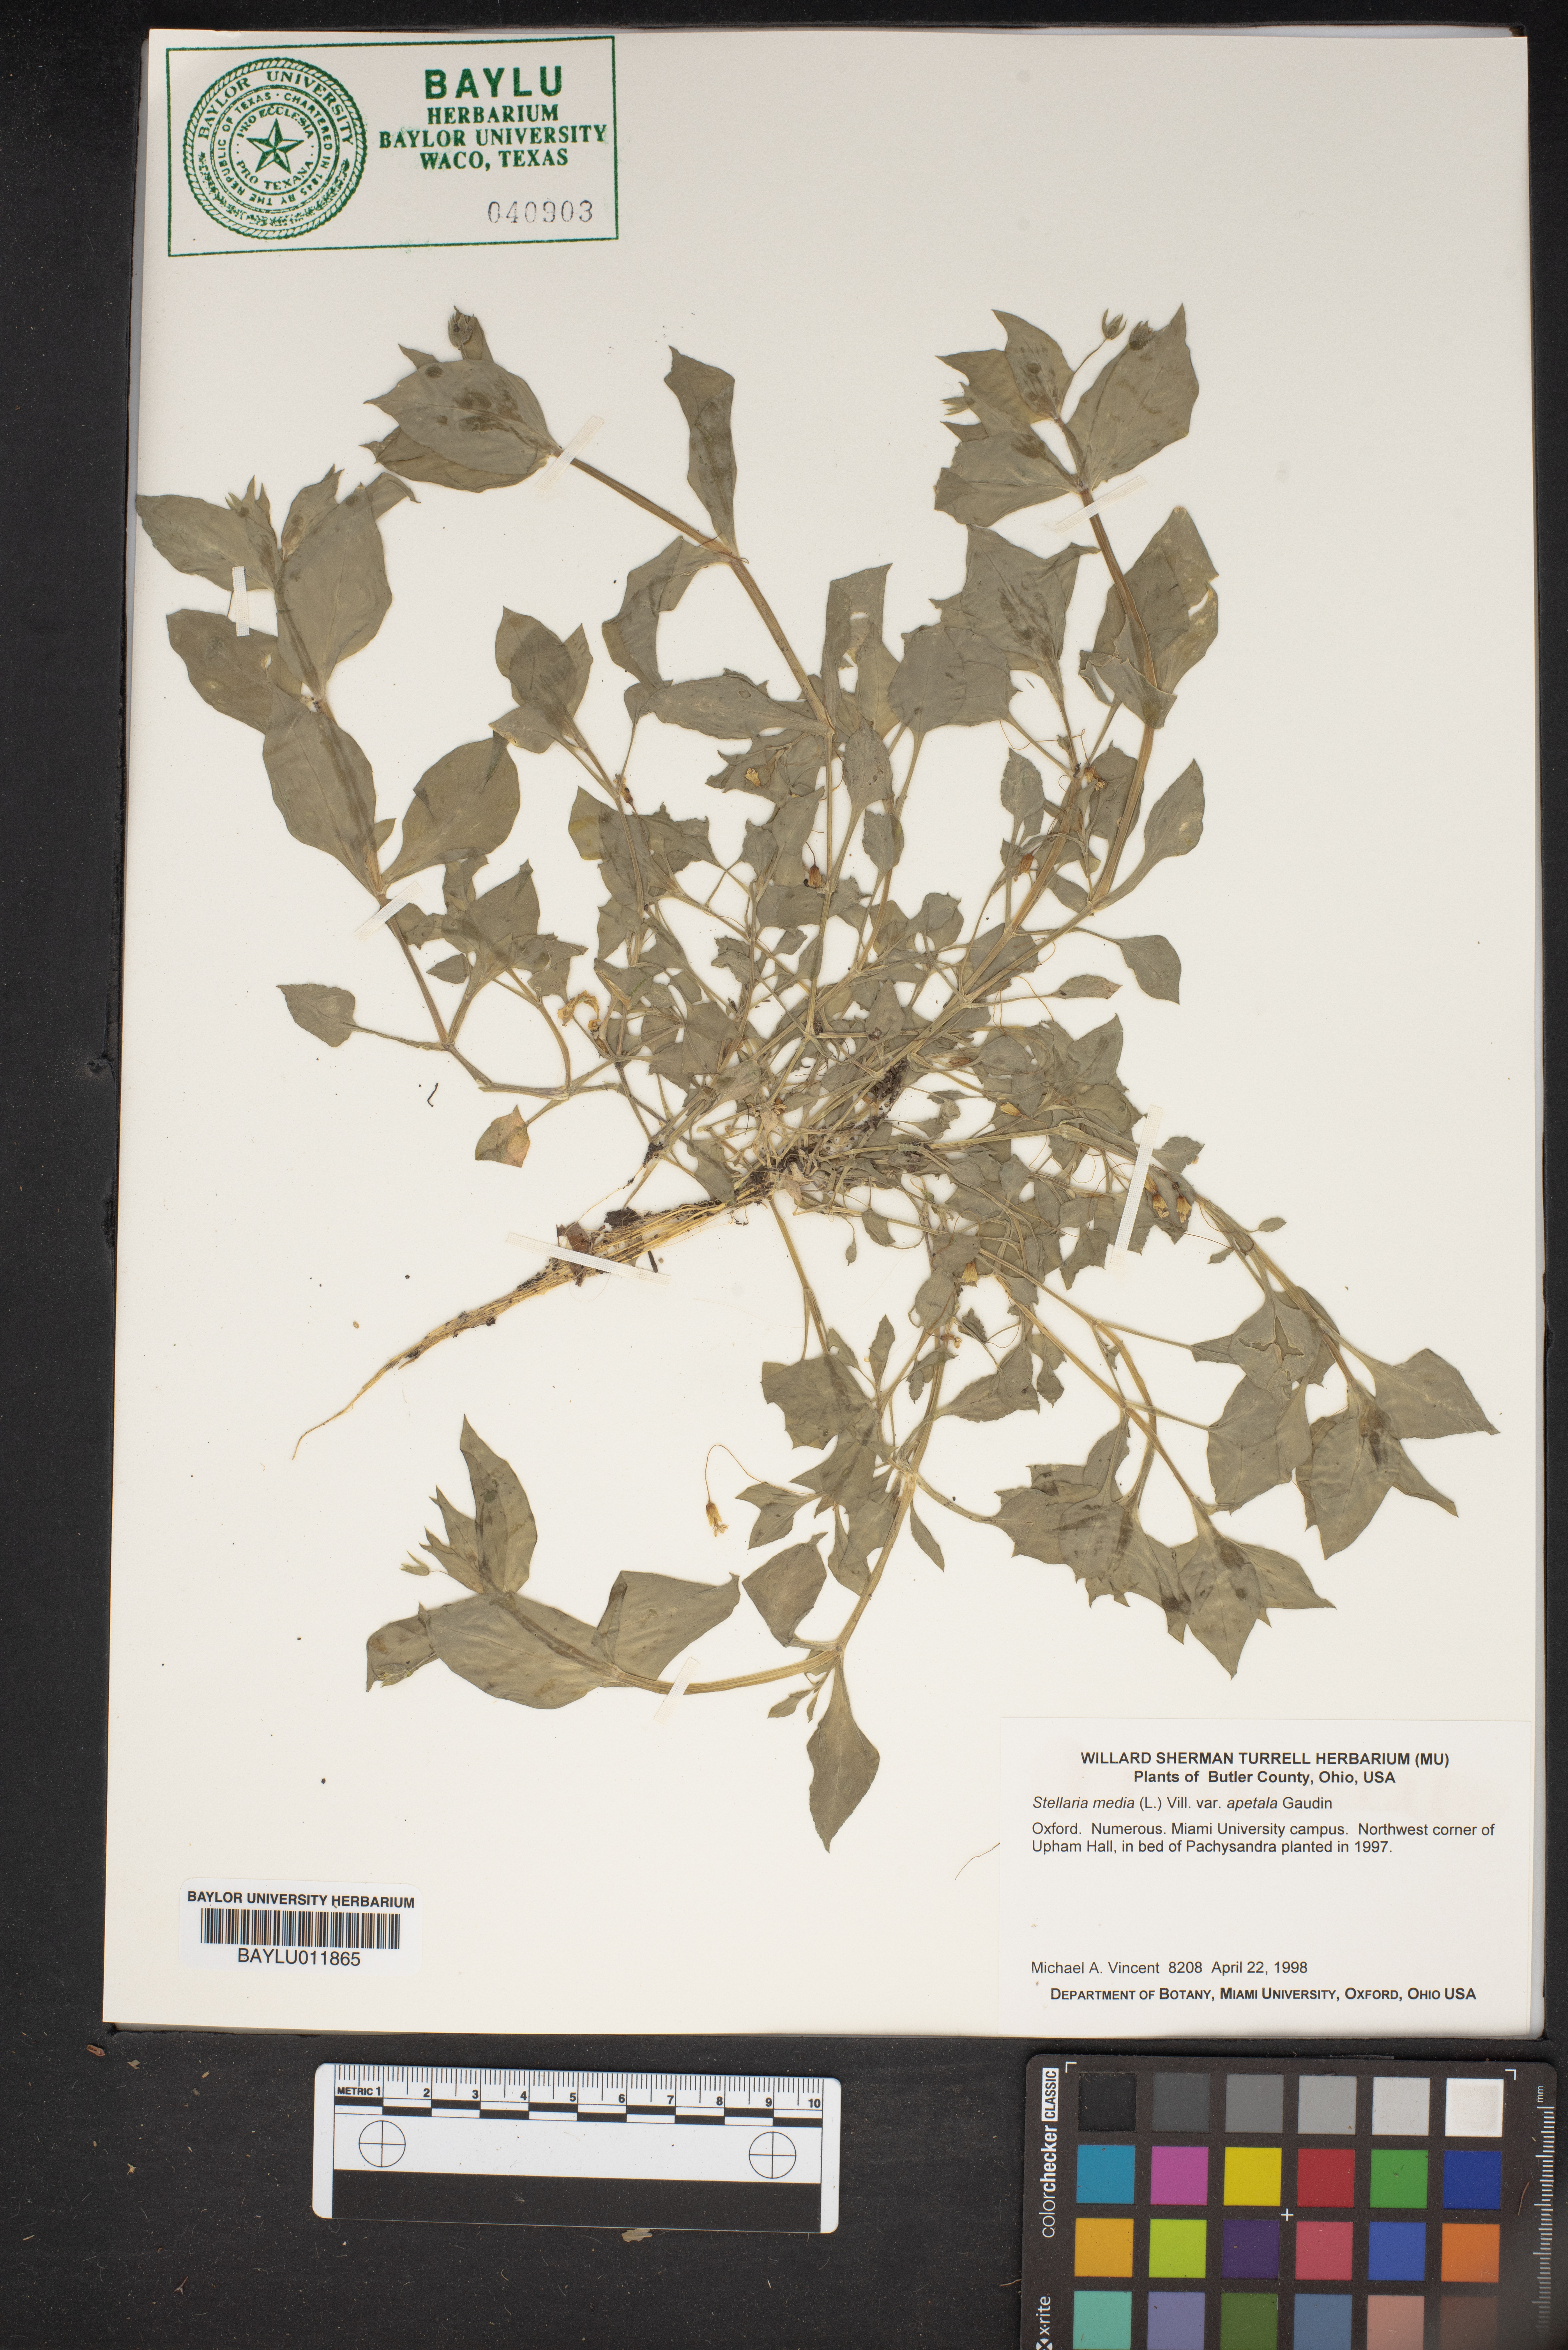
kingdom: Plantae
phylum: Tracheophyta
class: Magnoliopsida
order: Caryophyllales
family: Caryophyllaceae
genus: Stellaria
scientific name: Stellaria apetala
